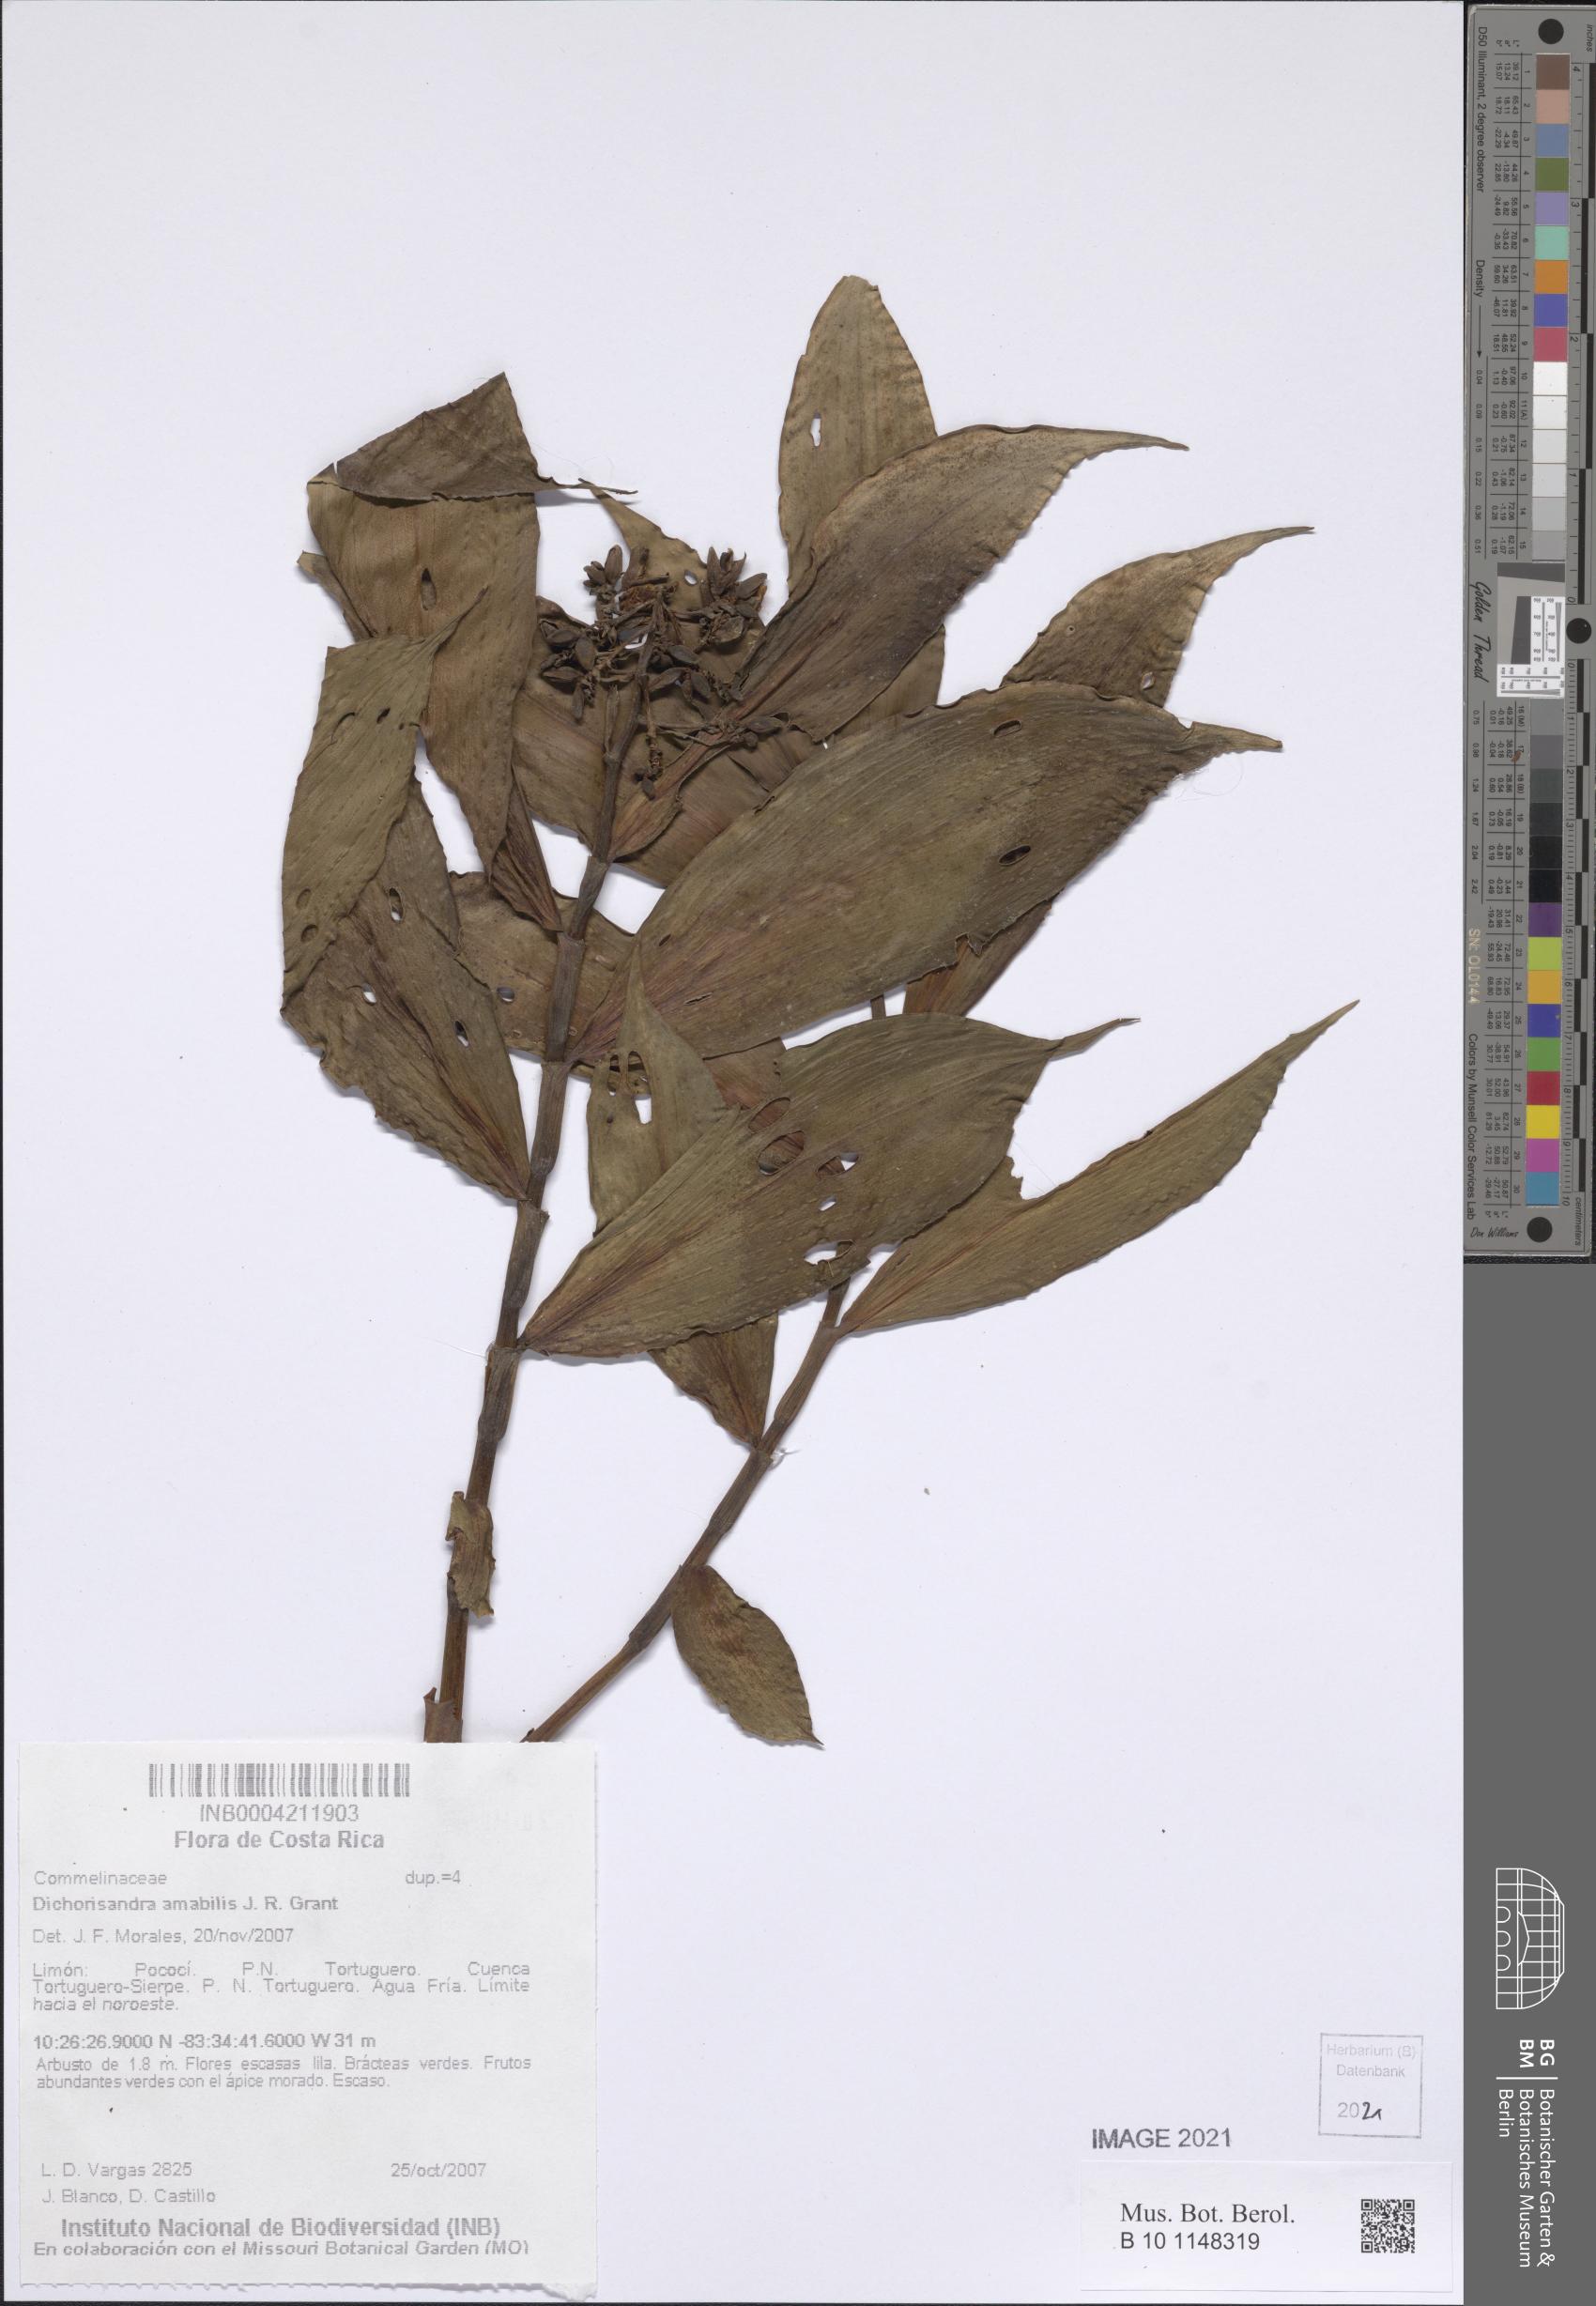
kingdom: Plantae
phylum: Tracheophyta
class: Liliopsida
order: Commelinales
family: Commelinaceae
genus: Dichorisandra
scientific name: Dichorisandra amabilis
